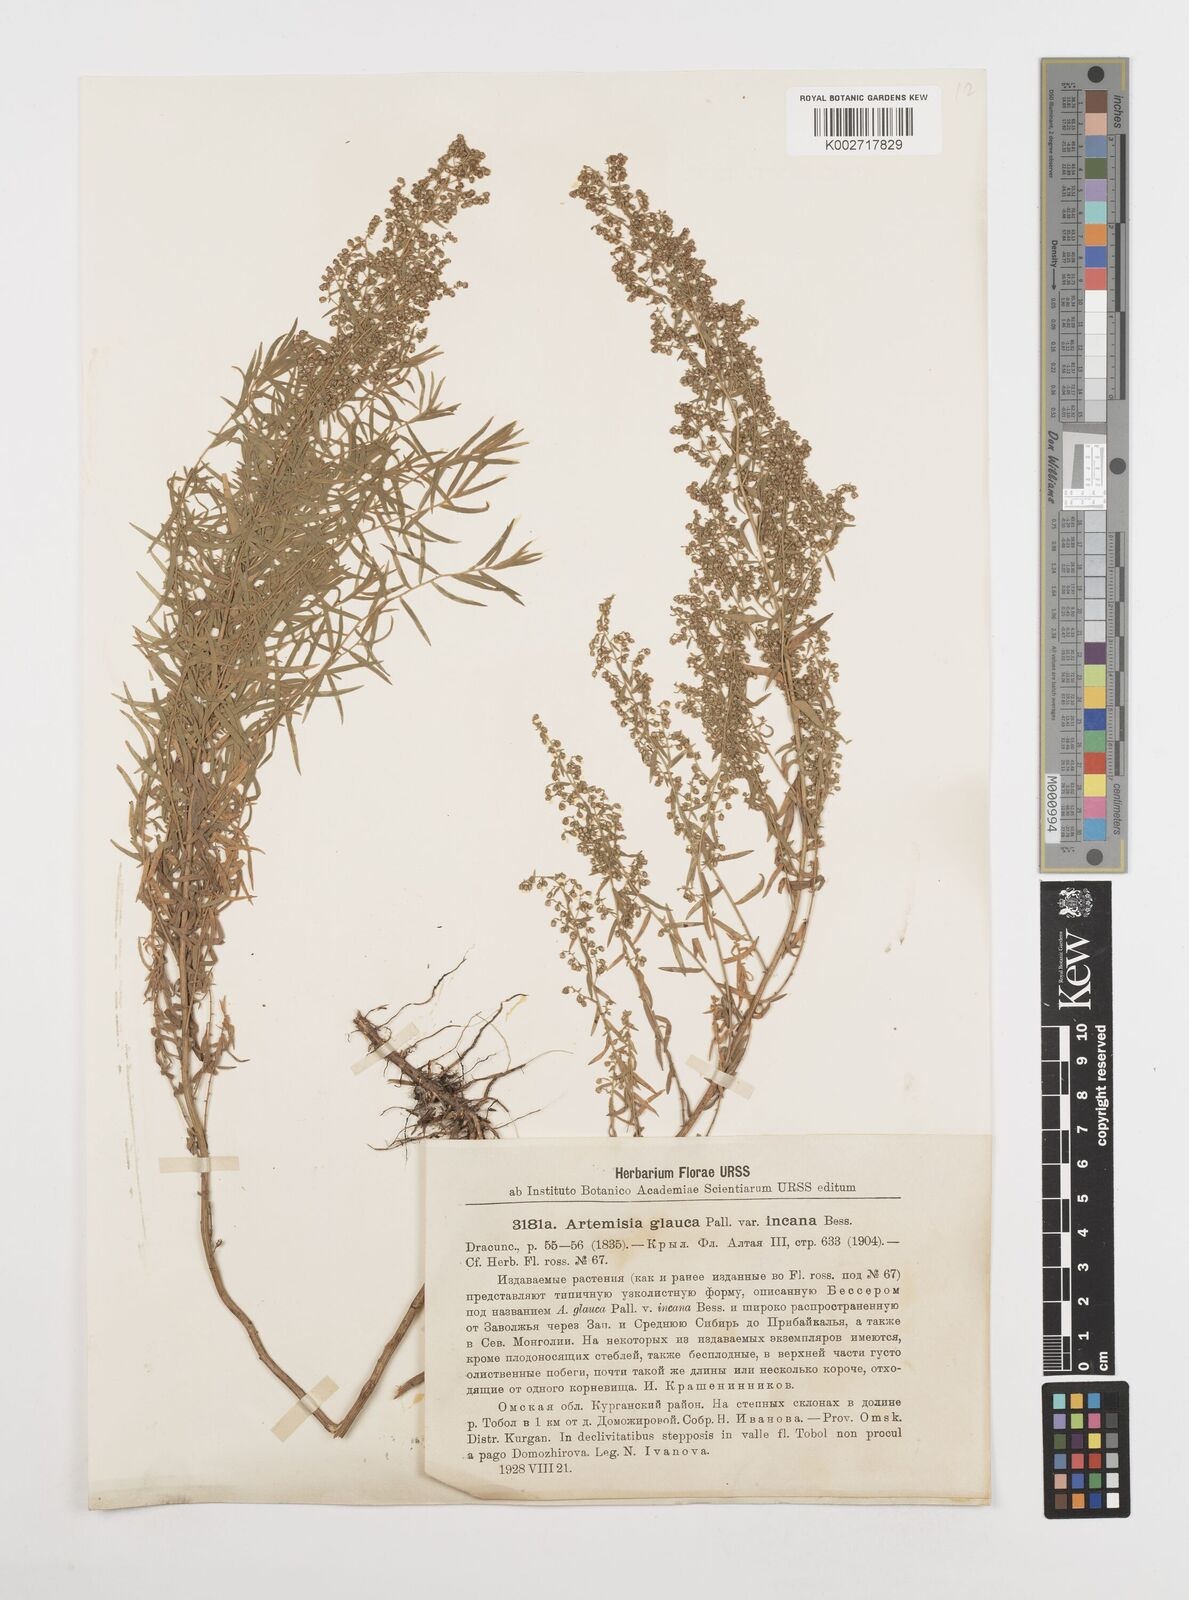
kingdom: Plantae
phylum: Tracheophyta
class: Magnoliopsida
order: Asterales
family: Asteraceae
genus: Artemisia
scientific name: Artemisia glauca
